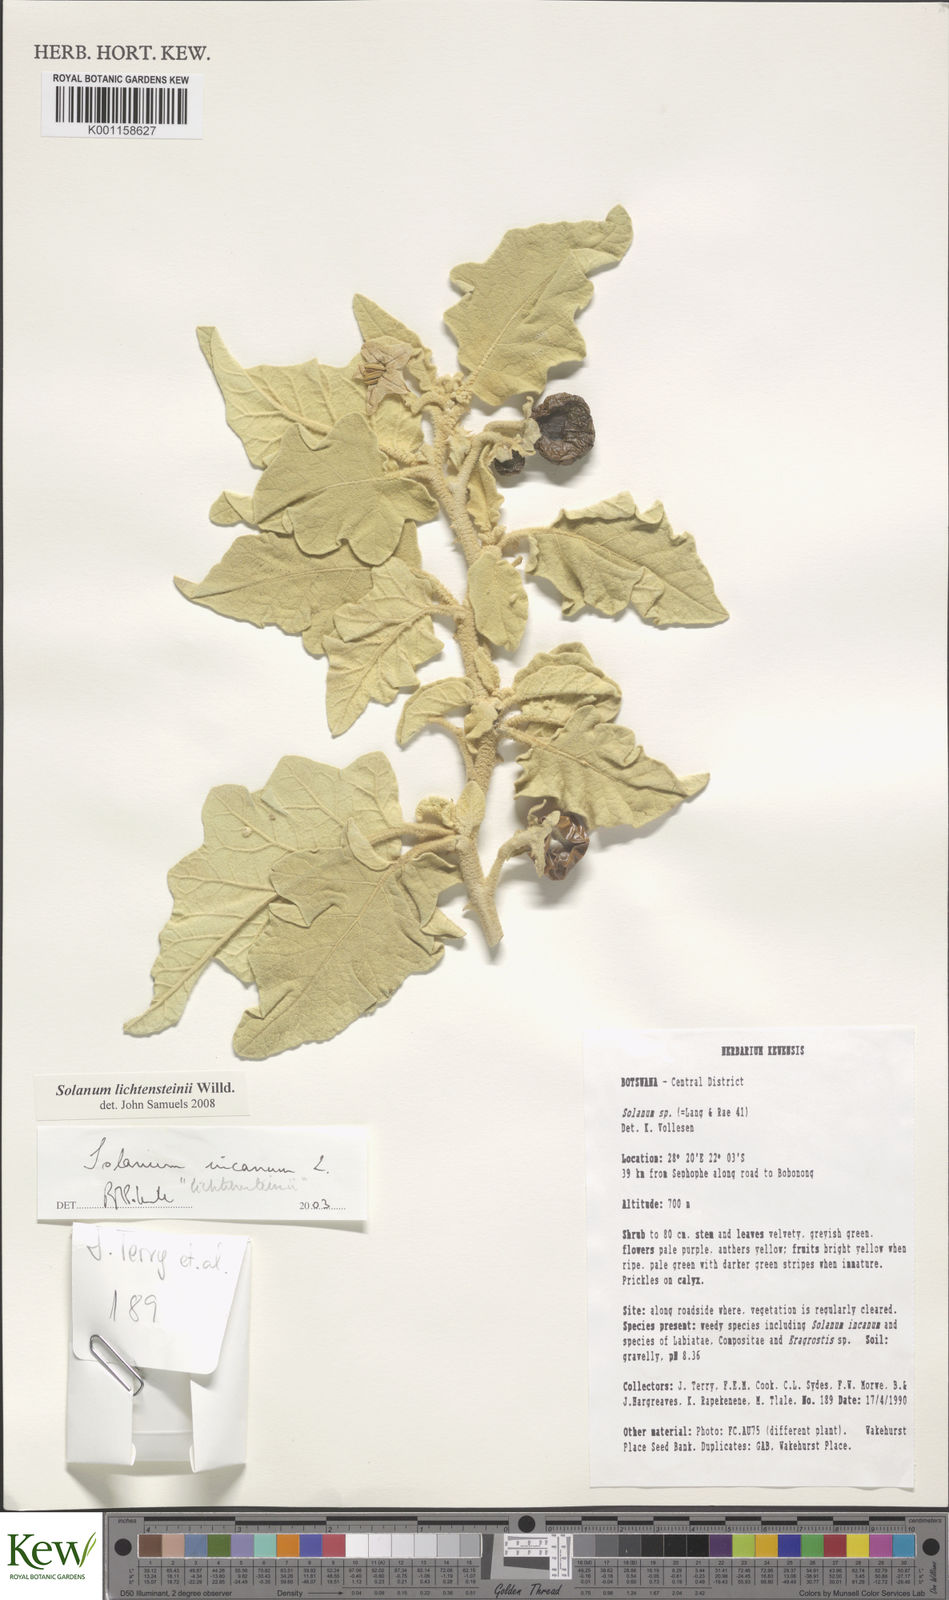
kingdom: Plantae
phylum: Tracheophyta
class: Magnoliopsida
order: Solanales
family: Solanaceae
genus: Solanum
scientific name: Solanum lichtensteinii
